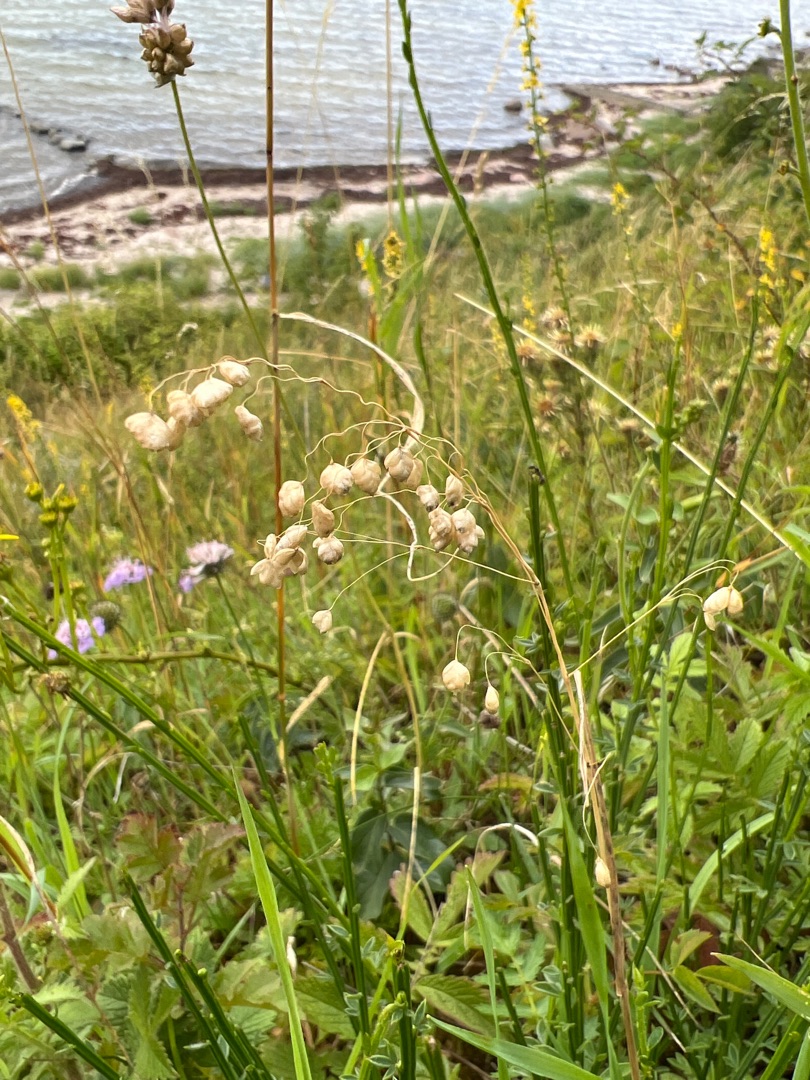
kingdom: Plantae
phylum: Tracheophyta
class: Liliopsida
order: Poales
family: Poaceae
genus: Briza
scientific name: Briza media
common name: Hjertegræs
